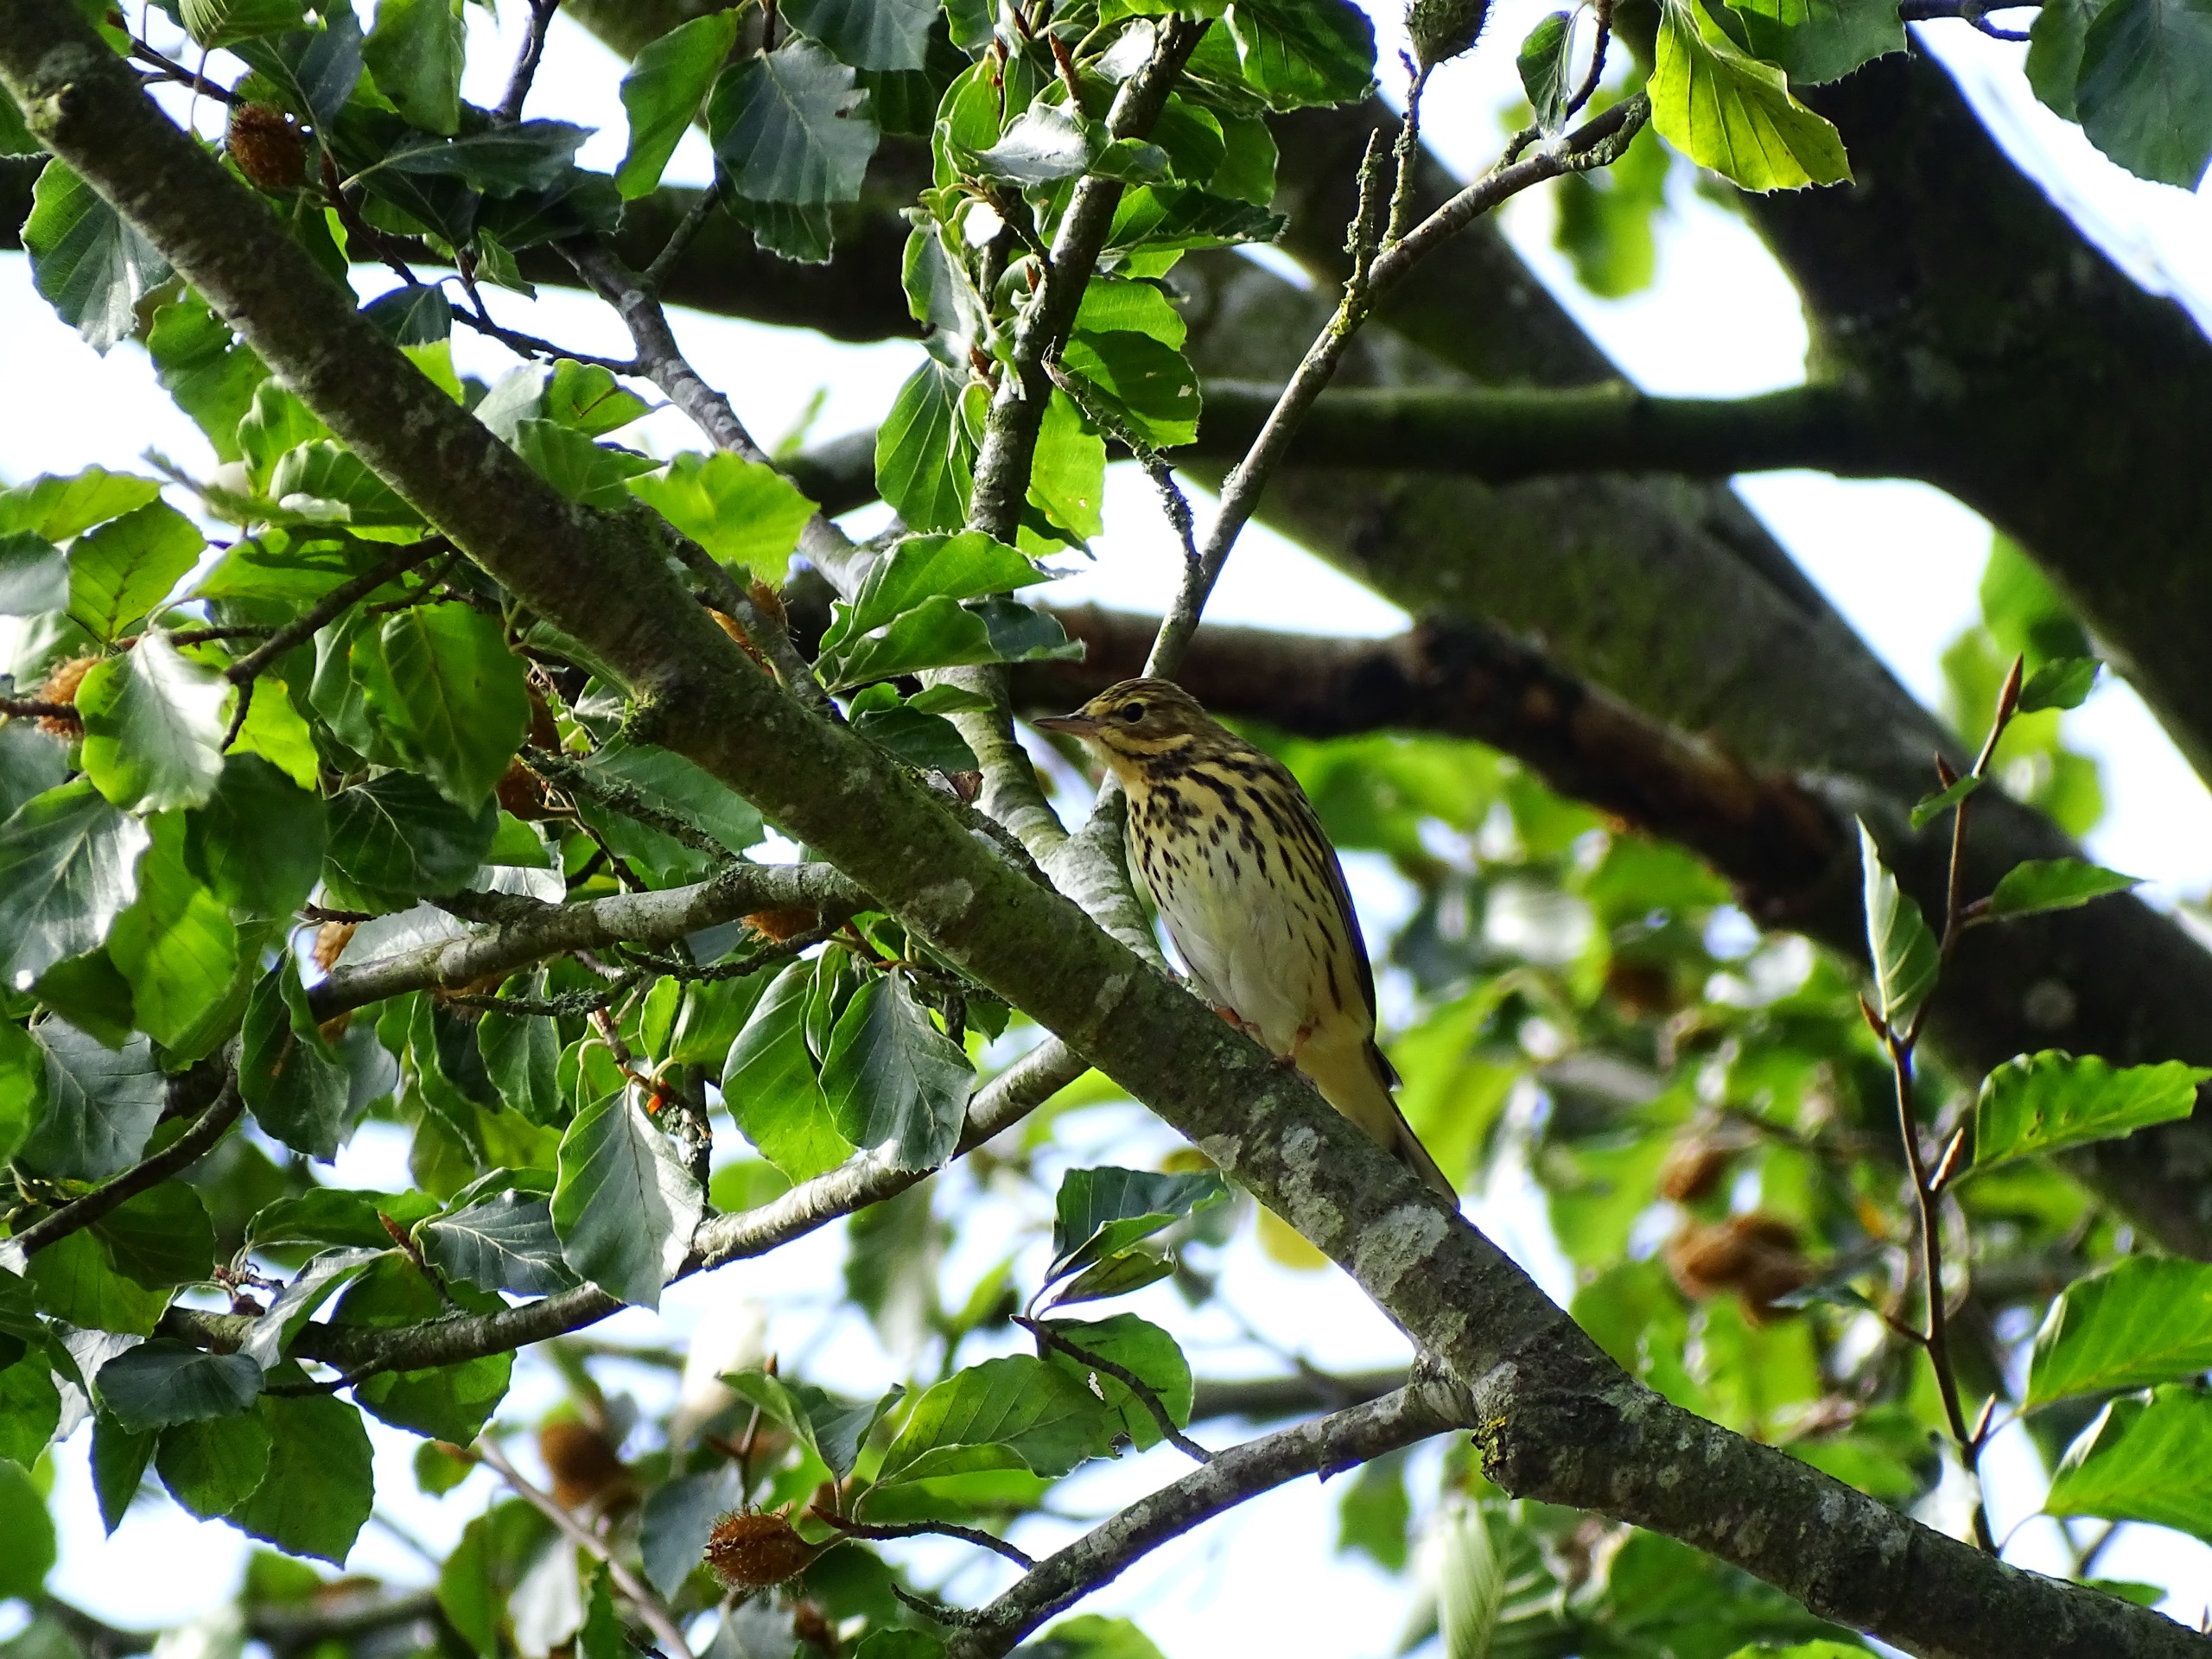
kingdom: Animalia
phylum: Chordata
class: Aves
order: Passeriformes
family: Motacillidae
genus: Anthus
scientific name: Anthus trivialis
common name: Skovpiber
